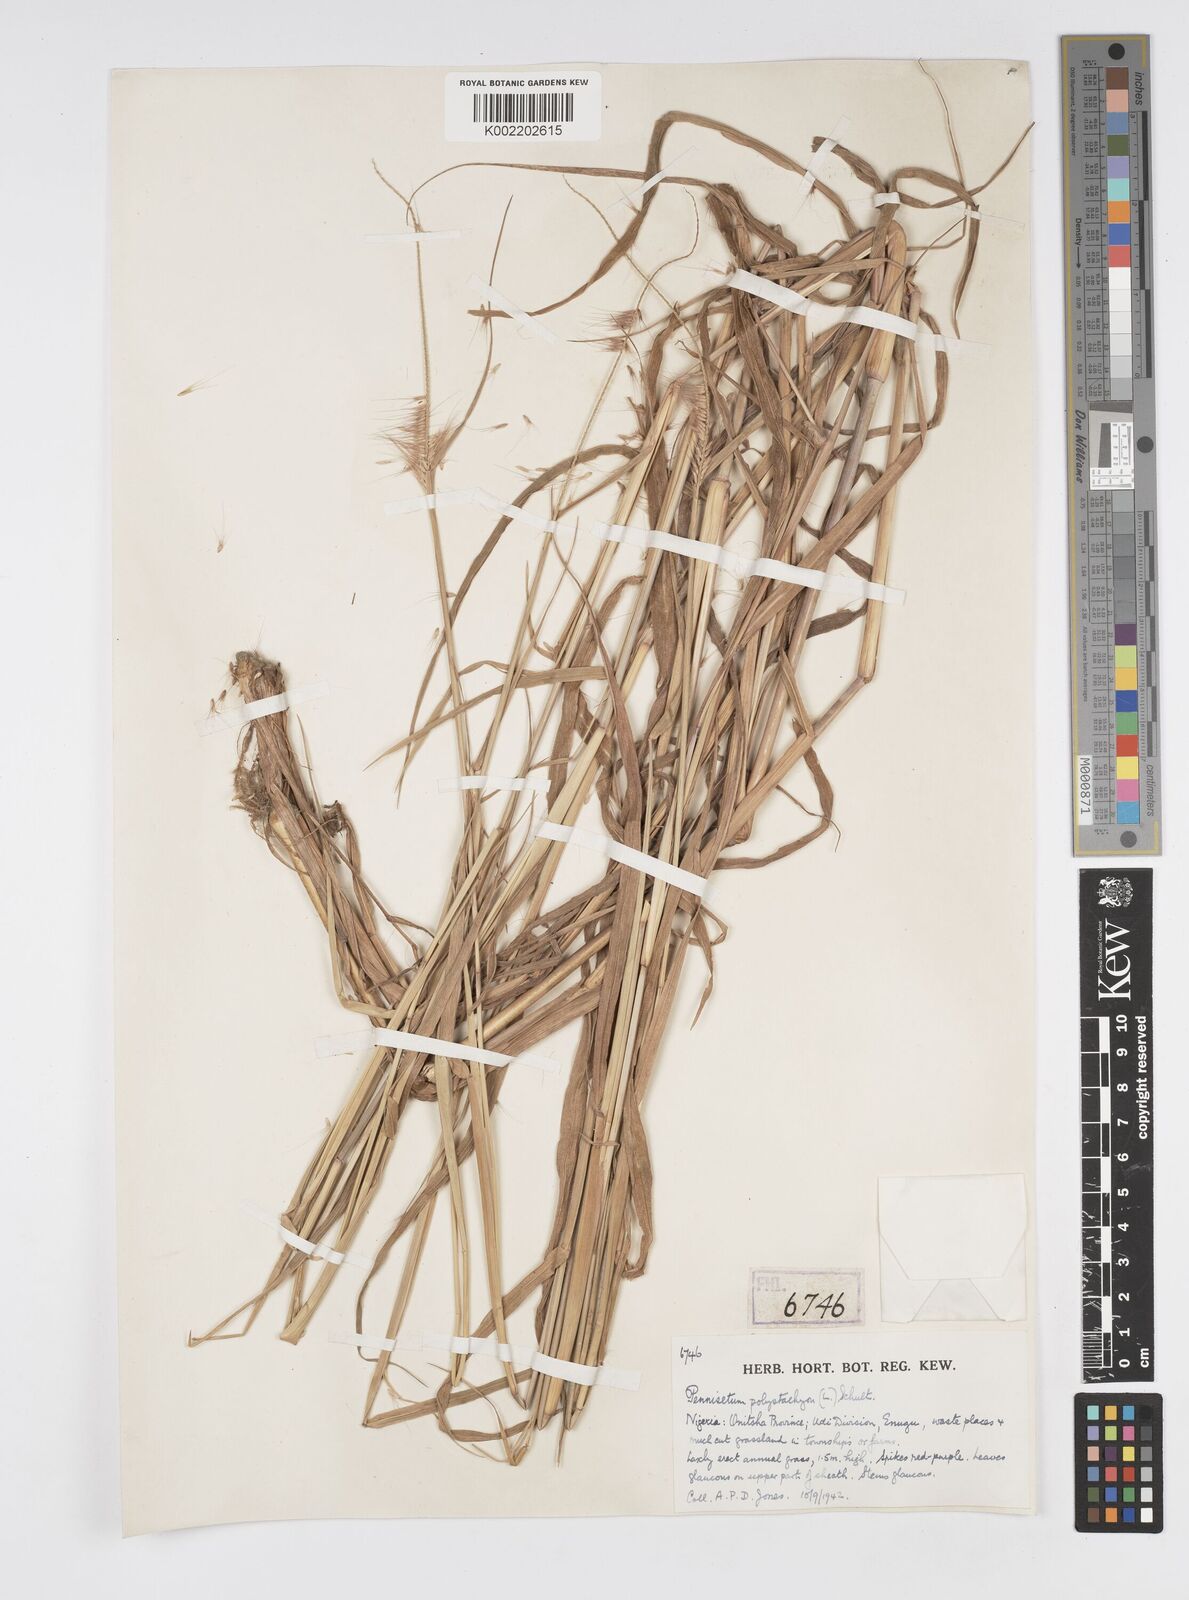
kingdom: Plantae
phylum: Tracheophyta
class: Liliopsida
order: Poales
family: Poaceae
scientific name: Poaceae
